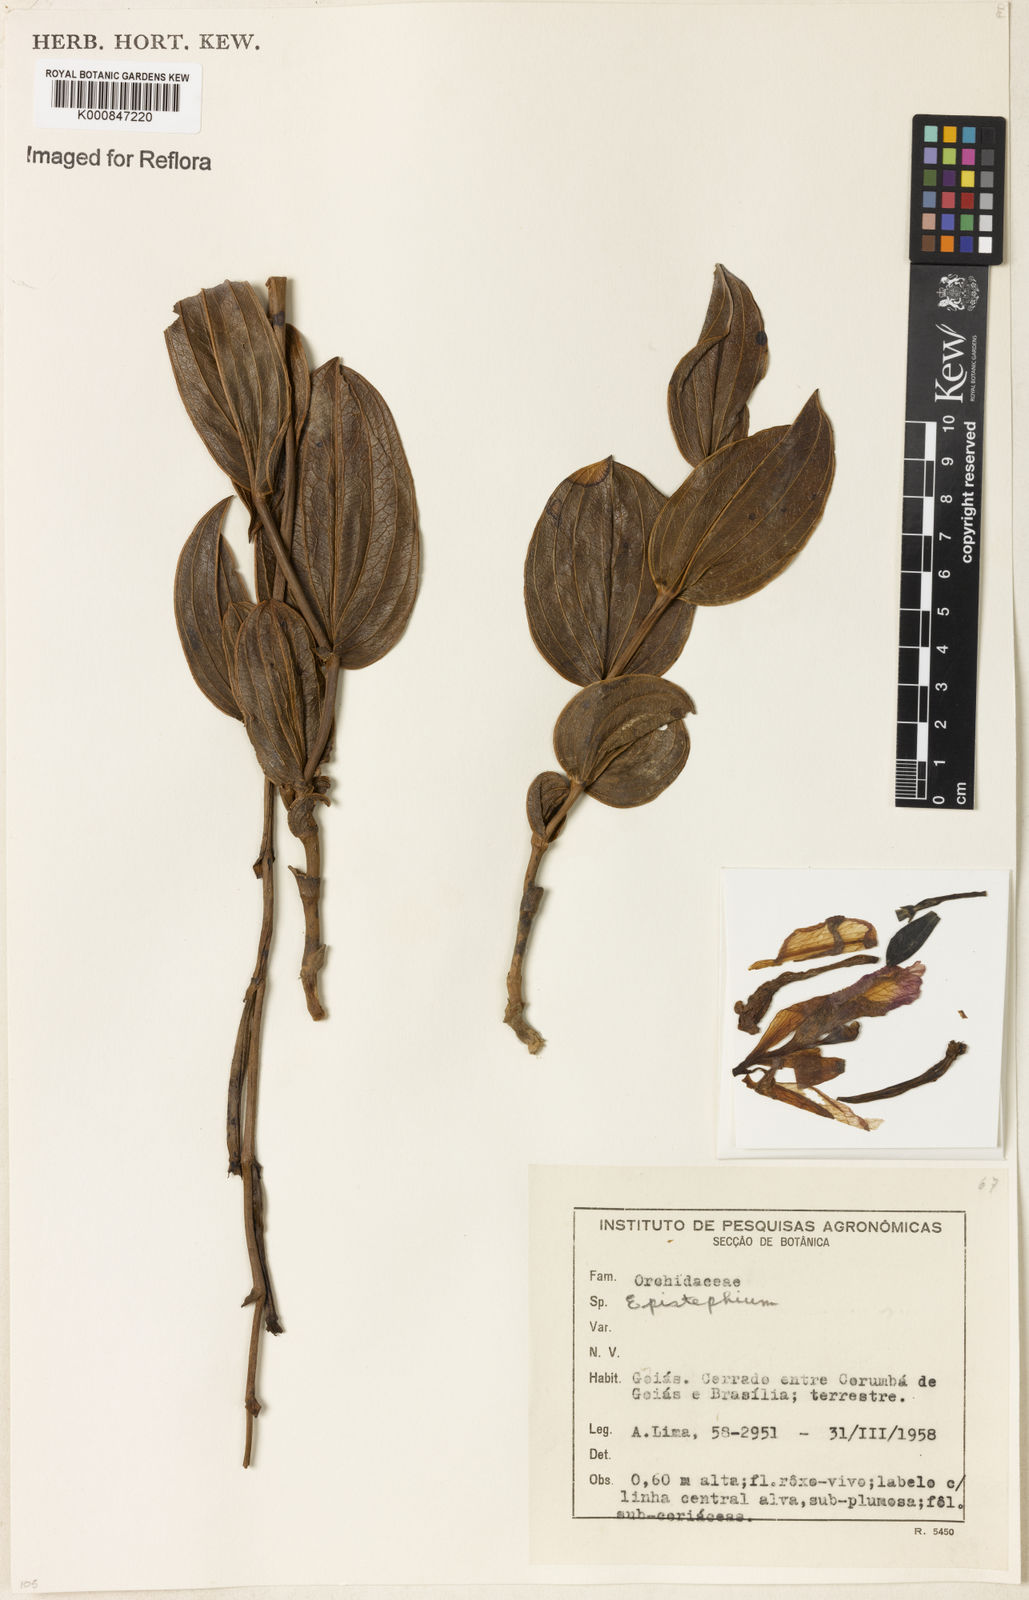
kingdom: Plantae
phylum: Tracheophyta
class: Liliopsida
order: Asparagales
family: Orchidaceae
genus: Epistephium
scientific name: Epistephium sclerophyllum
